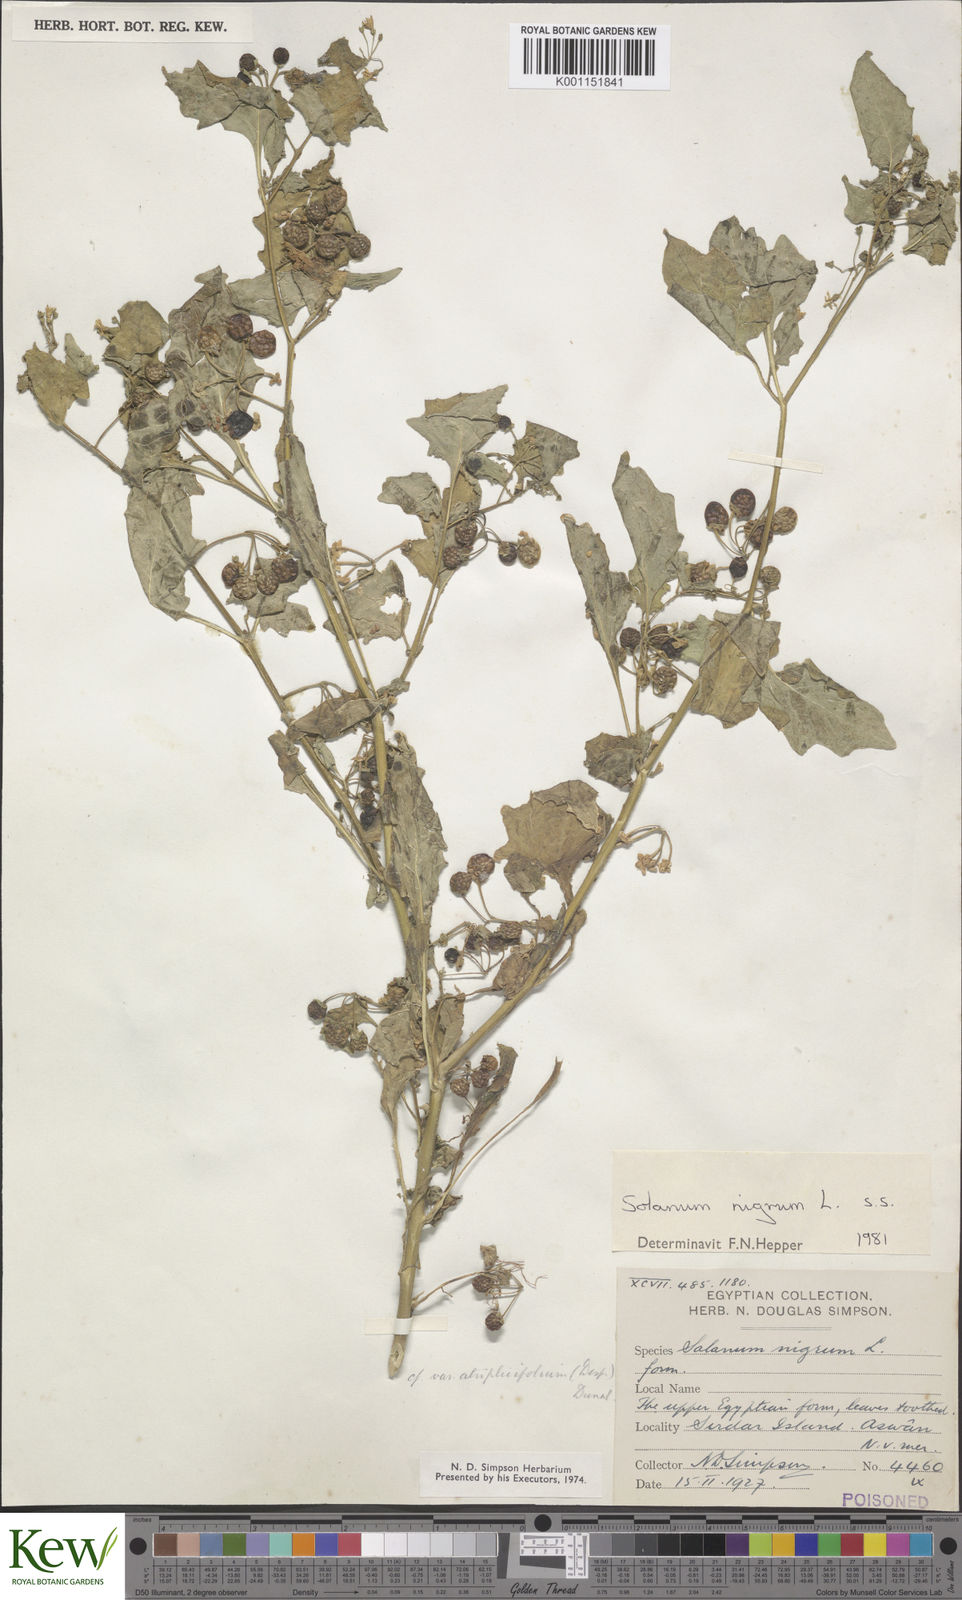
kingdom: Plantae
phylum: Tracheophyta
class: Magnoliopsida
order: Solanales
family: Solanaceae
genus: Solanum
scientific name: Solanum nigrum
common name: Black nightshade
